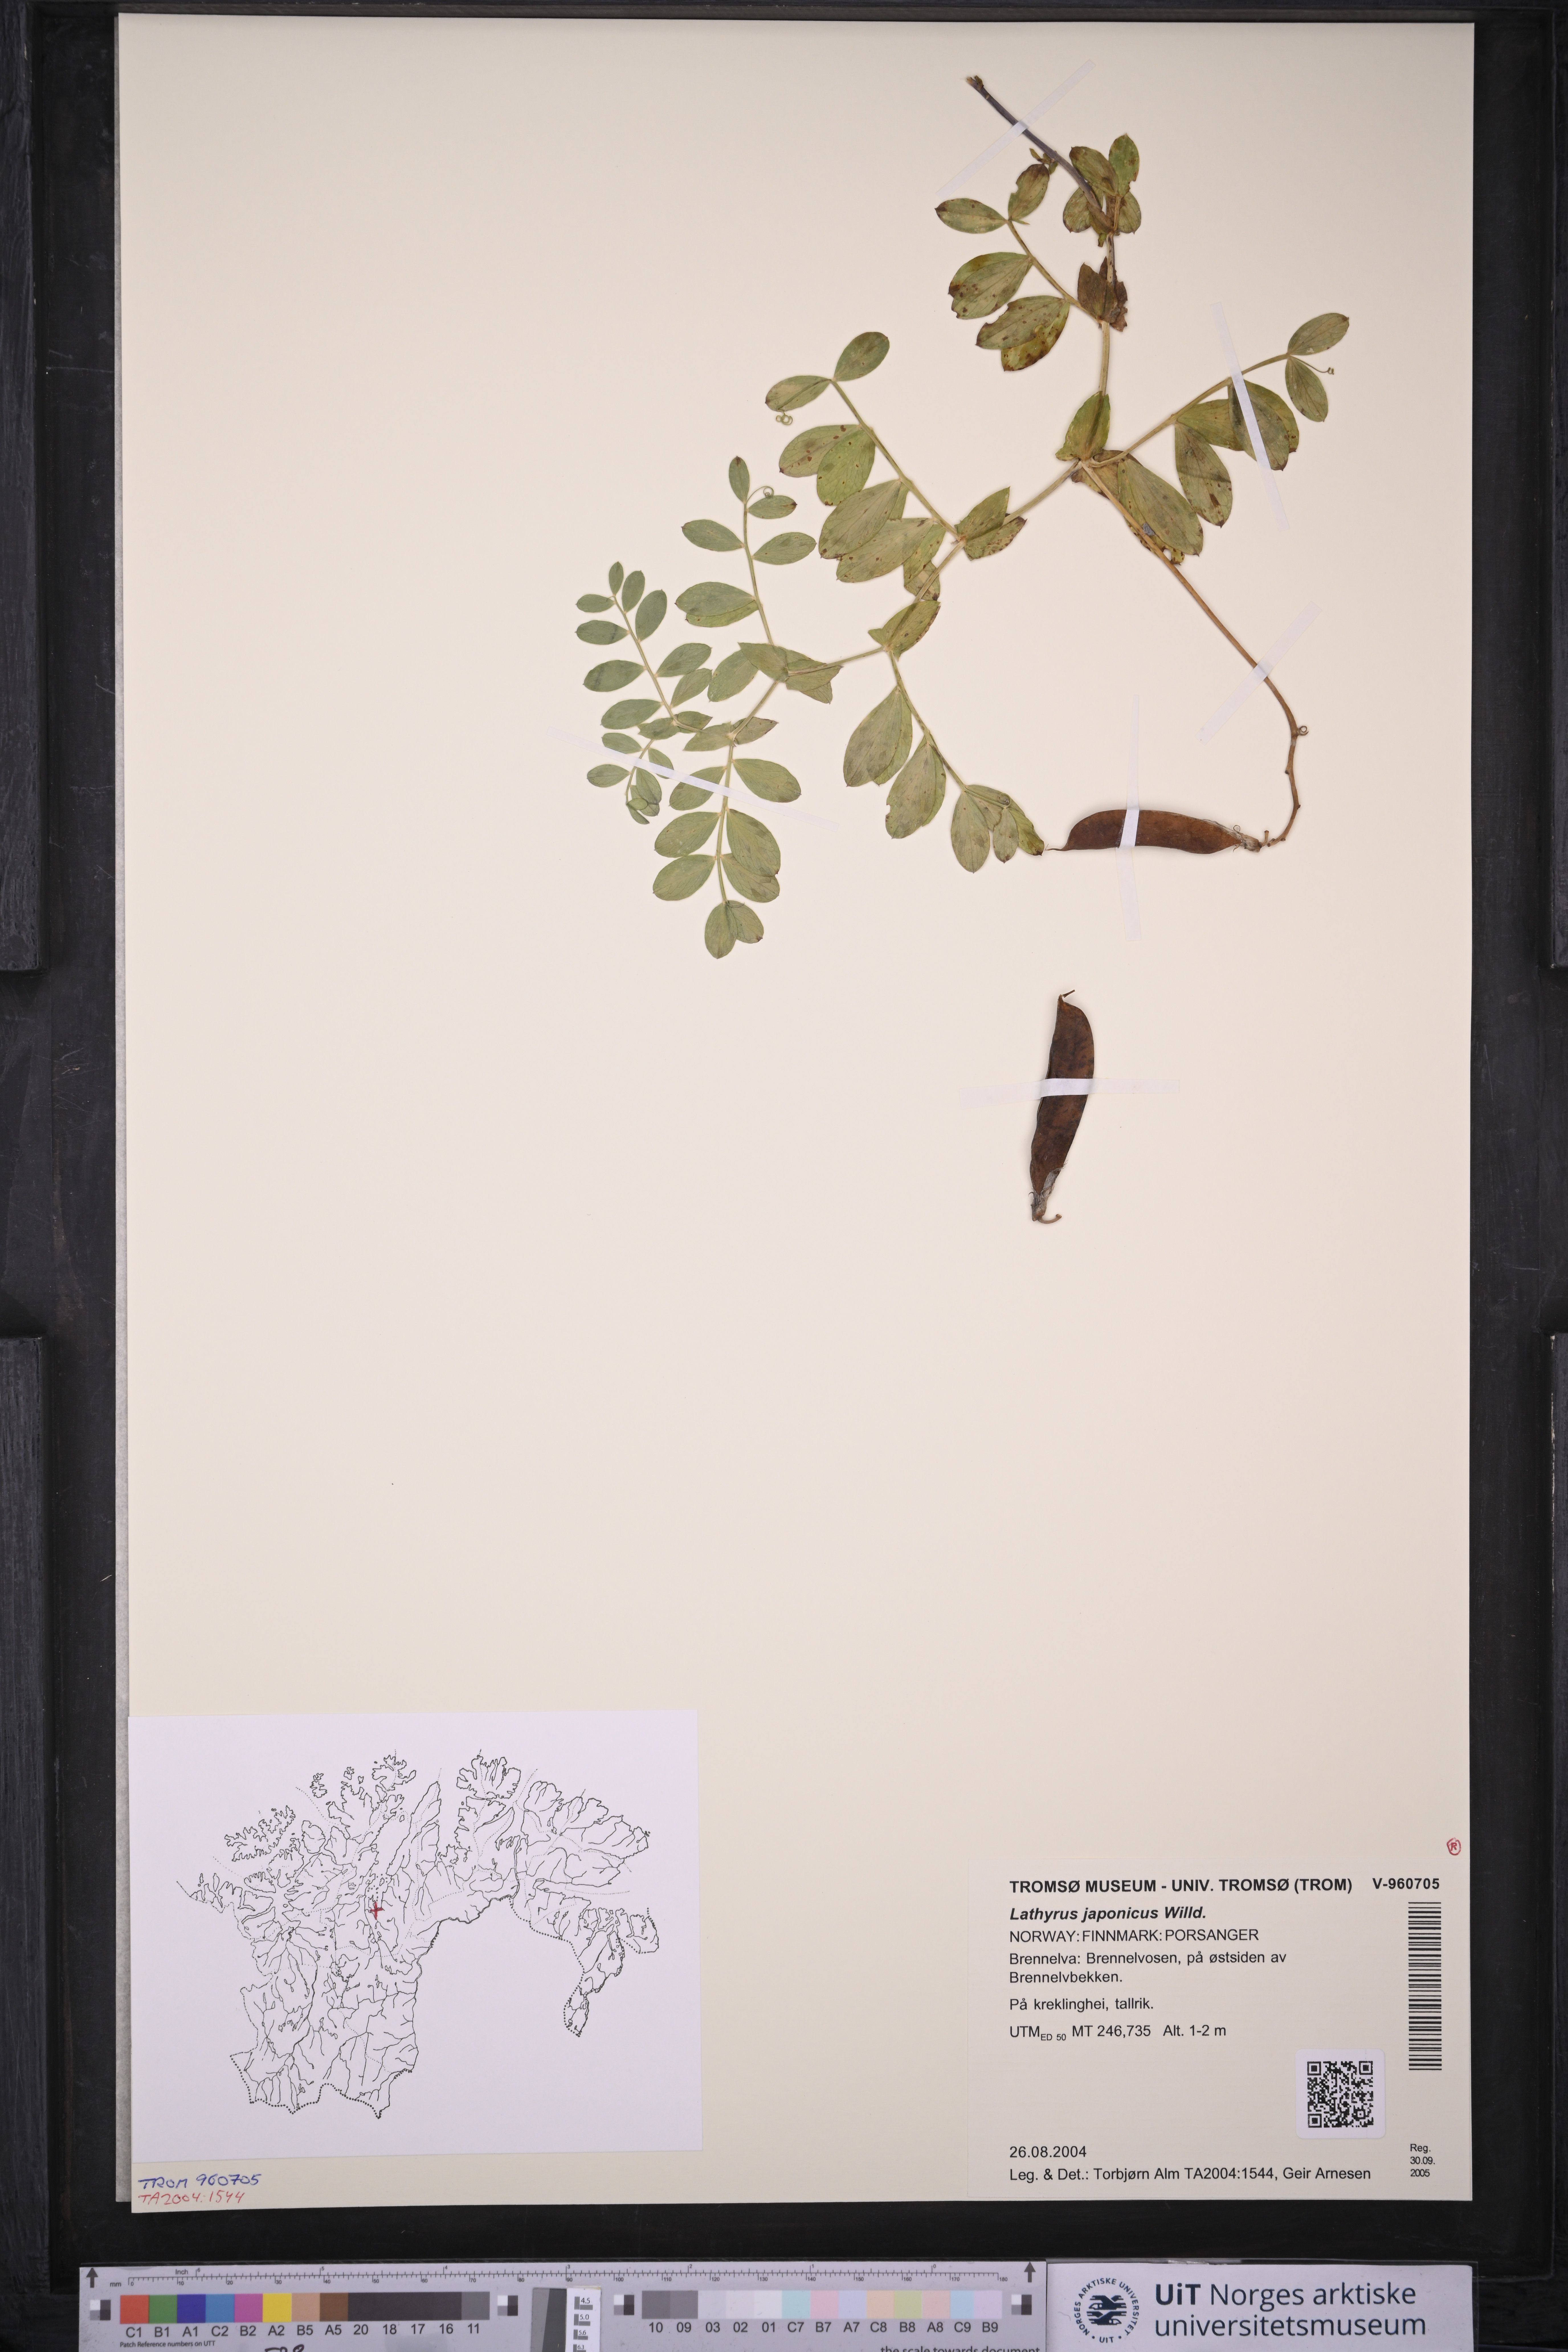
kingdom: Plantae
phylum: Tracheophyta
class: Magnoliopsida
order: Fabales
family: Fabaceae
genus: Lathyrus
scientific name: Lathyrus japonicus
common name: Sea pea
